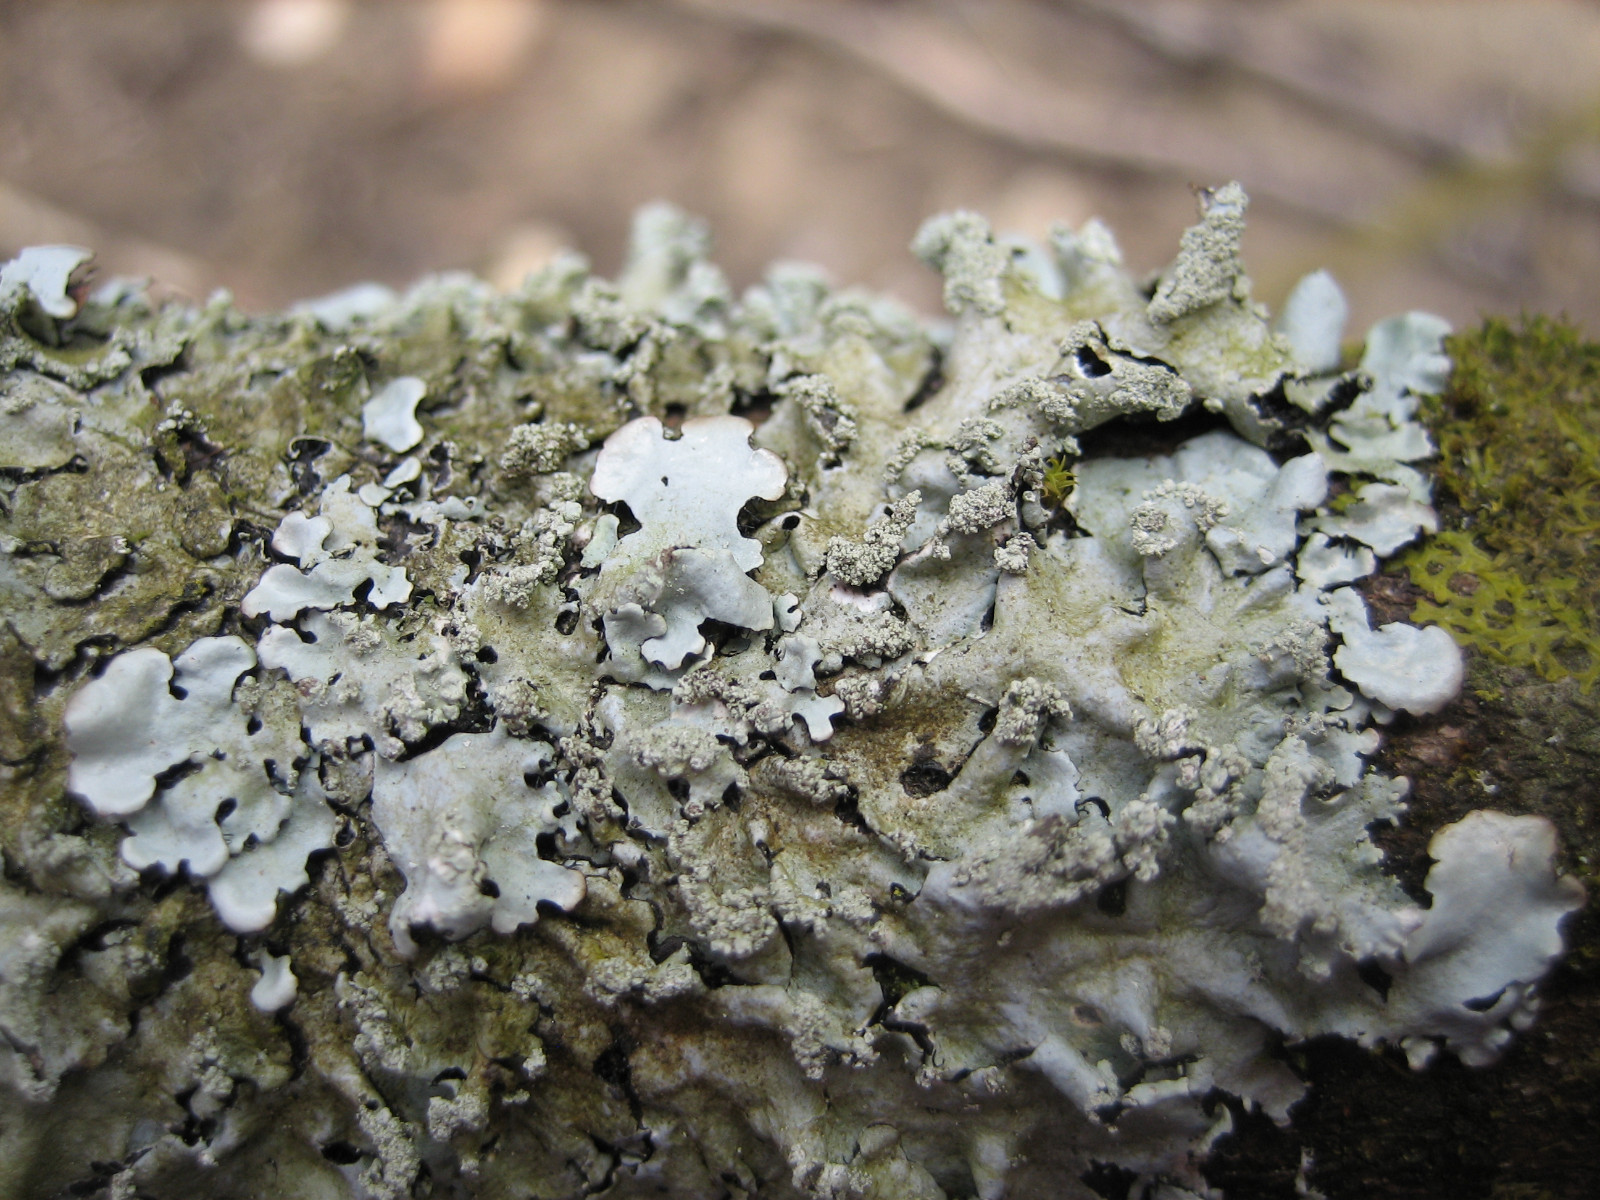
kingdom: Fungi
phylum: Ascomycota
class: Lecanoromycetes
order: Lecanorales
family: Parmeliaceae
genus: Hypotrachyna
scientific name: Hypotrachyna afrorevoluta
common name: kyst-skållav
